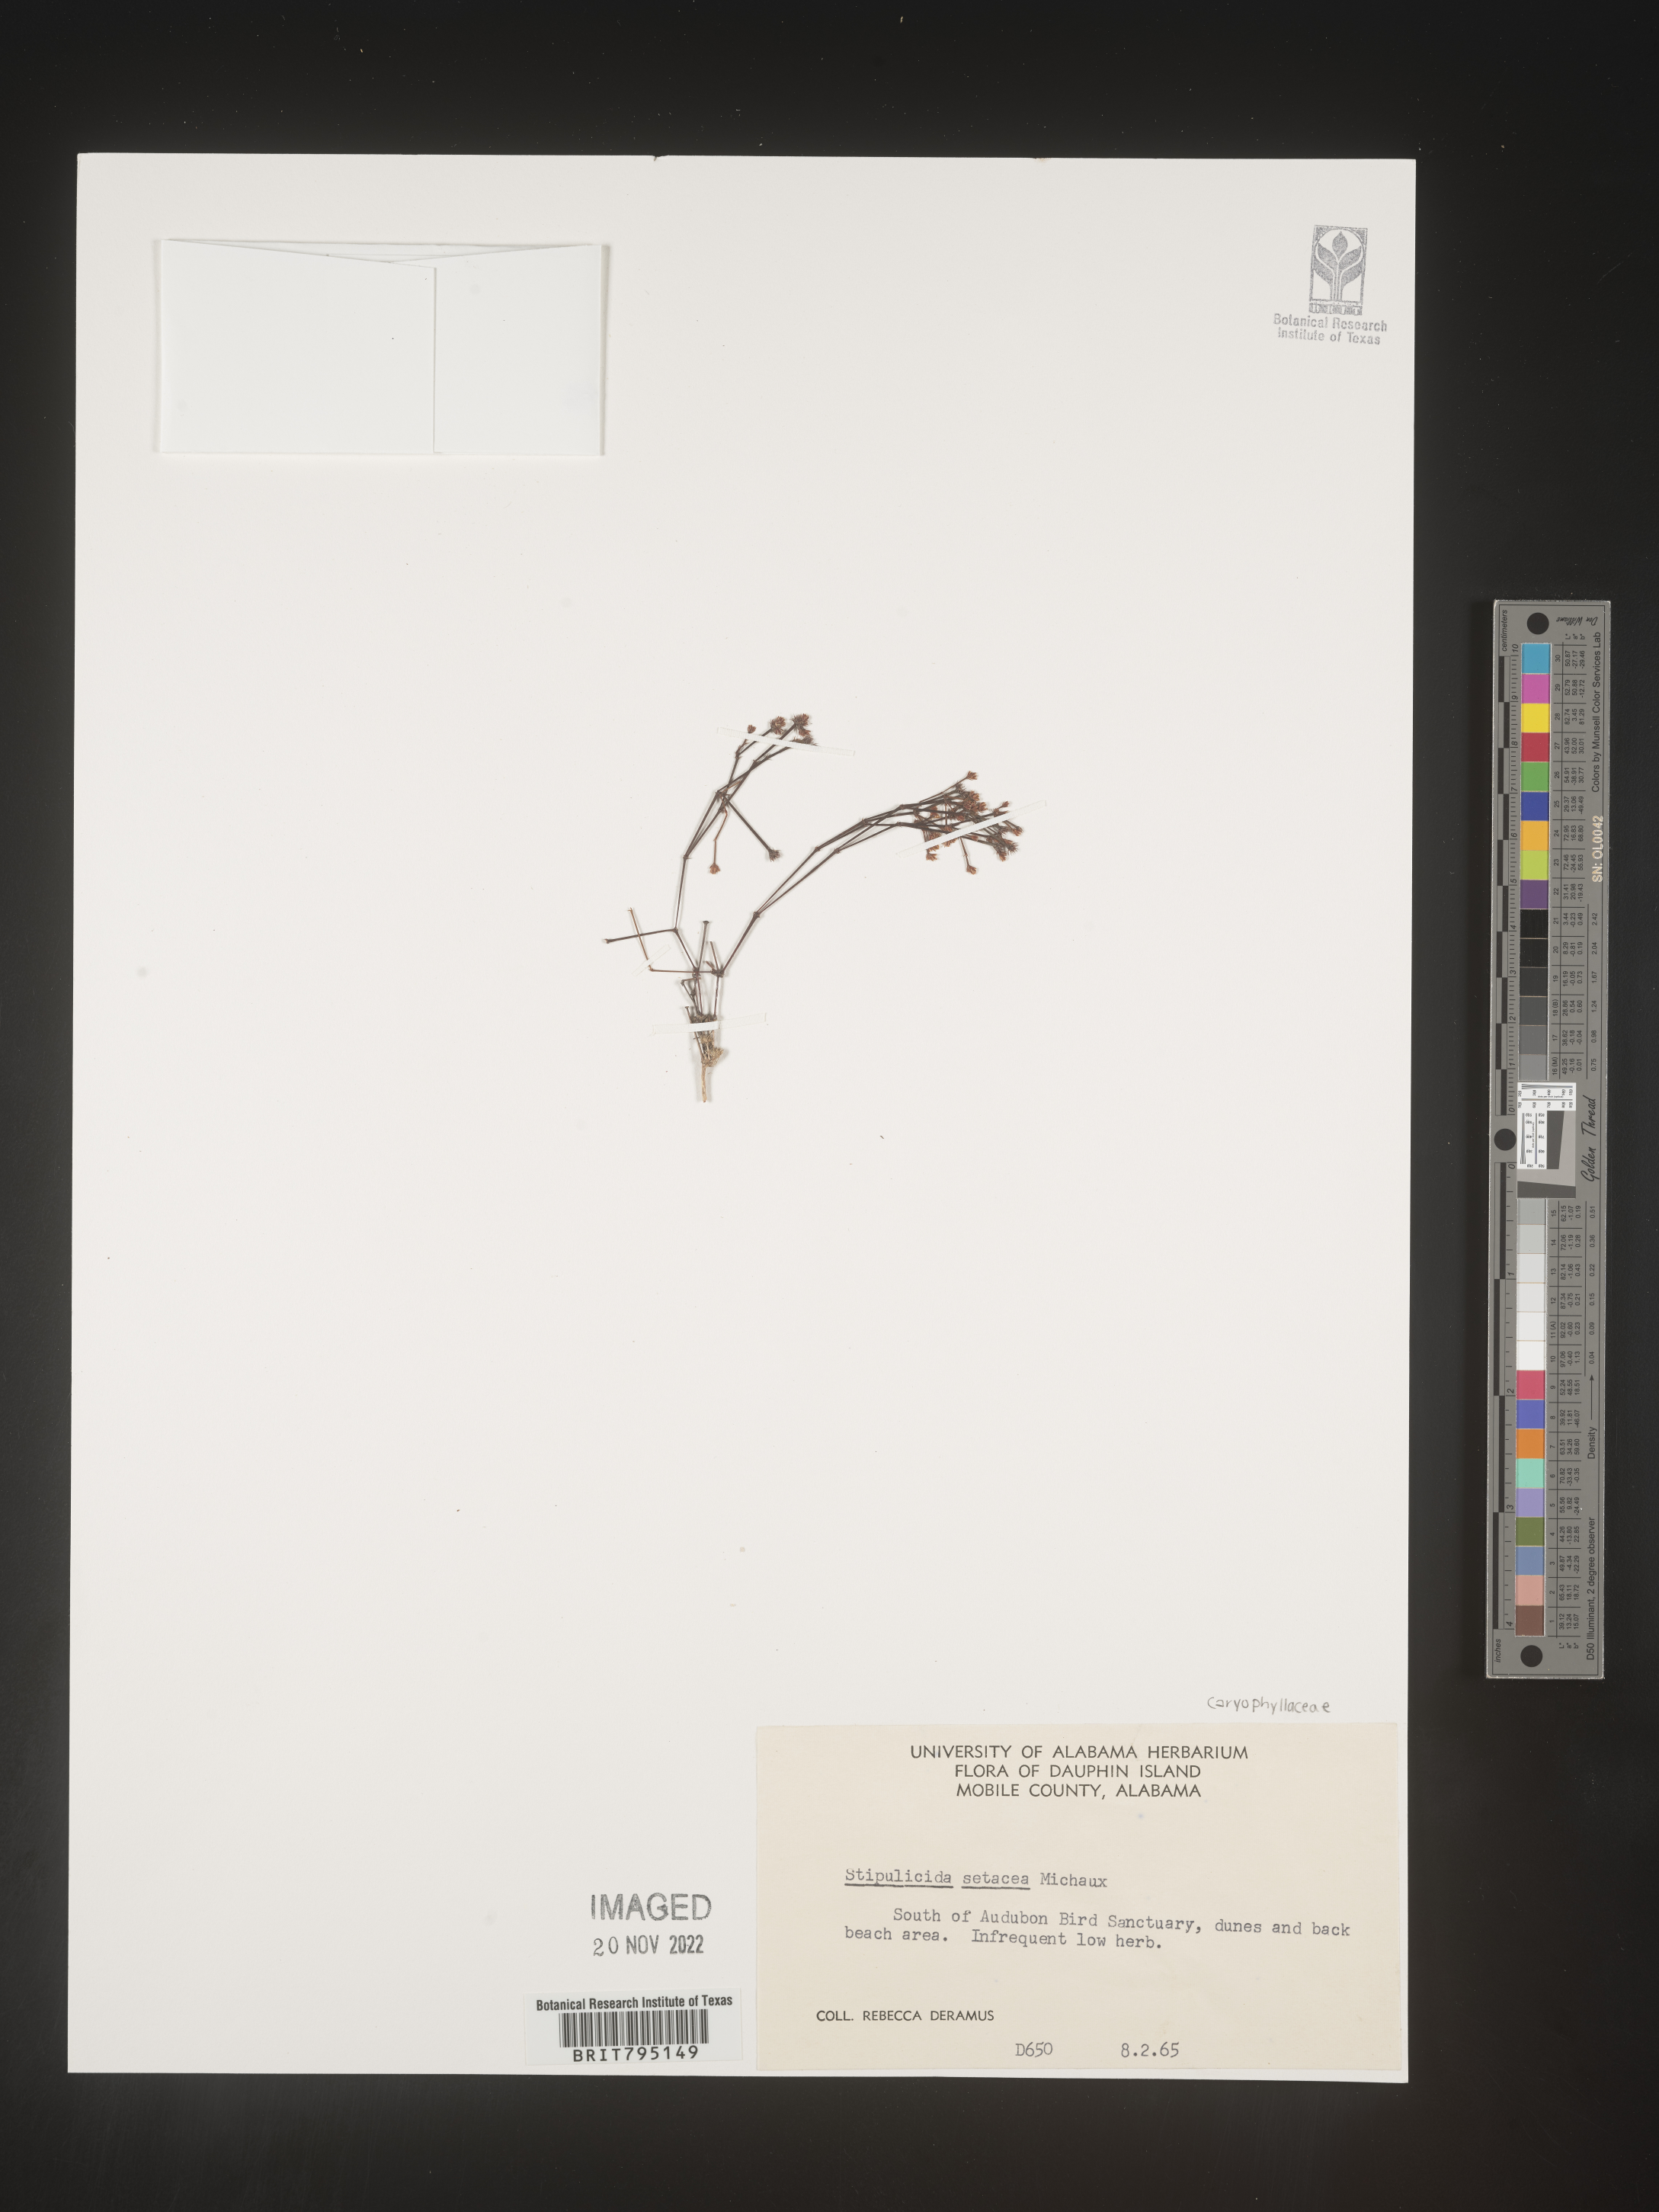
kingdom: Plantae
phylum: Tracheophyta
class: Magnoliopsida
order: Caryophyllales
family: Caryophyllaceae
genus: Stipulicida
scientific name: Stipulicida
